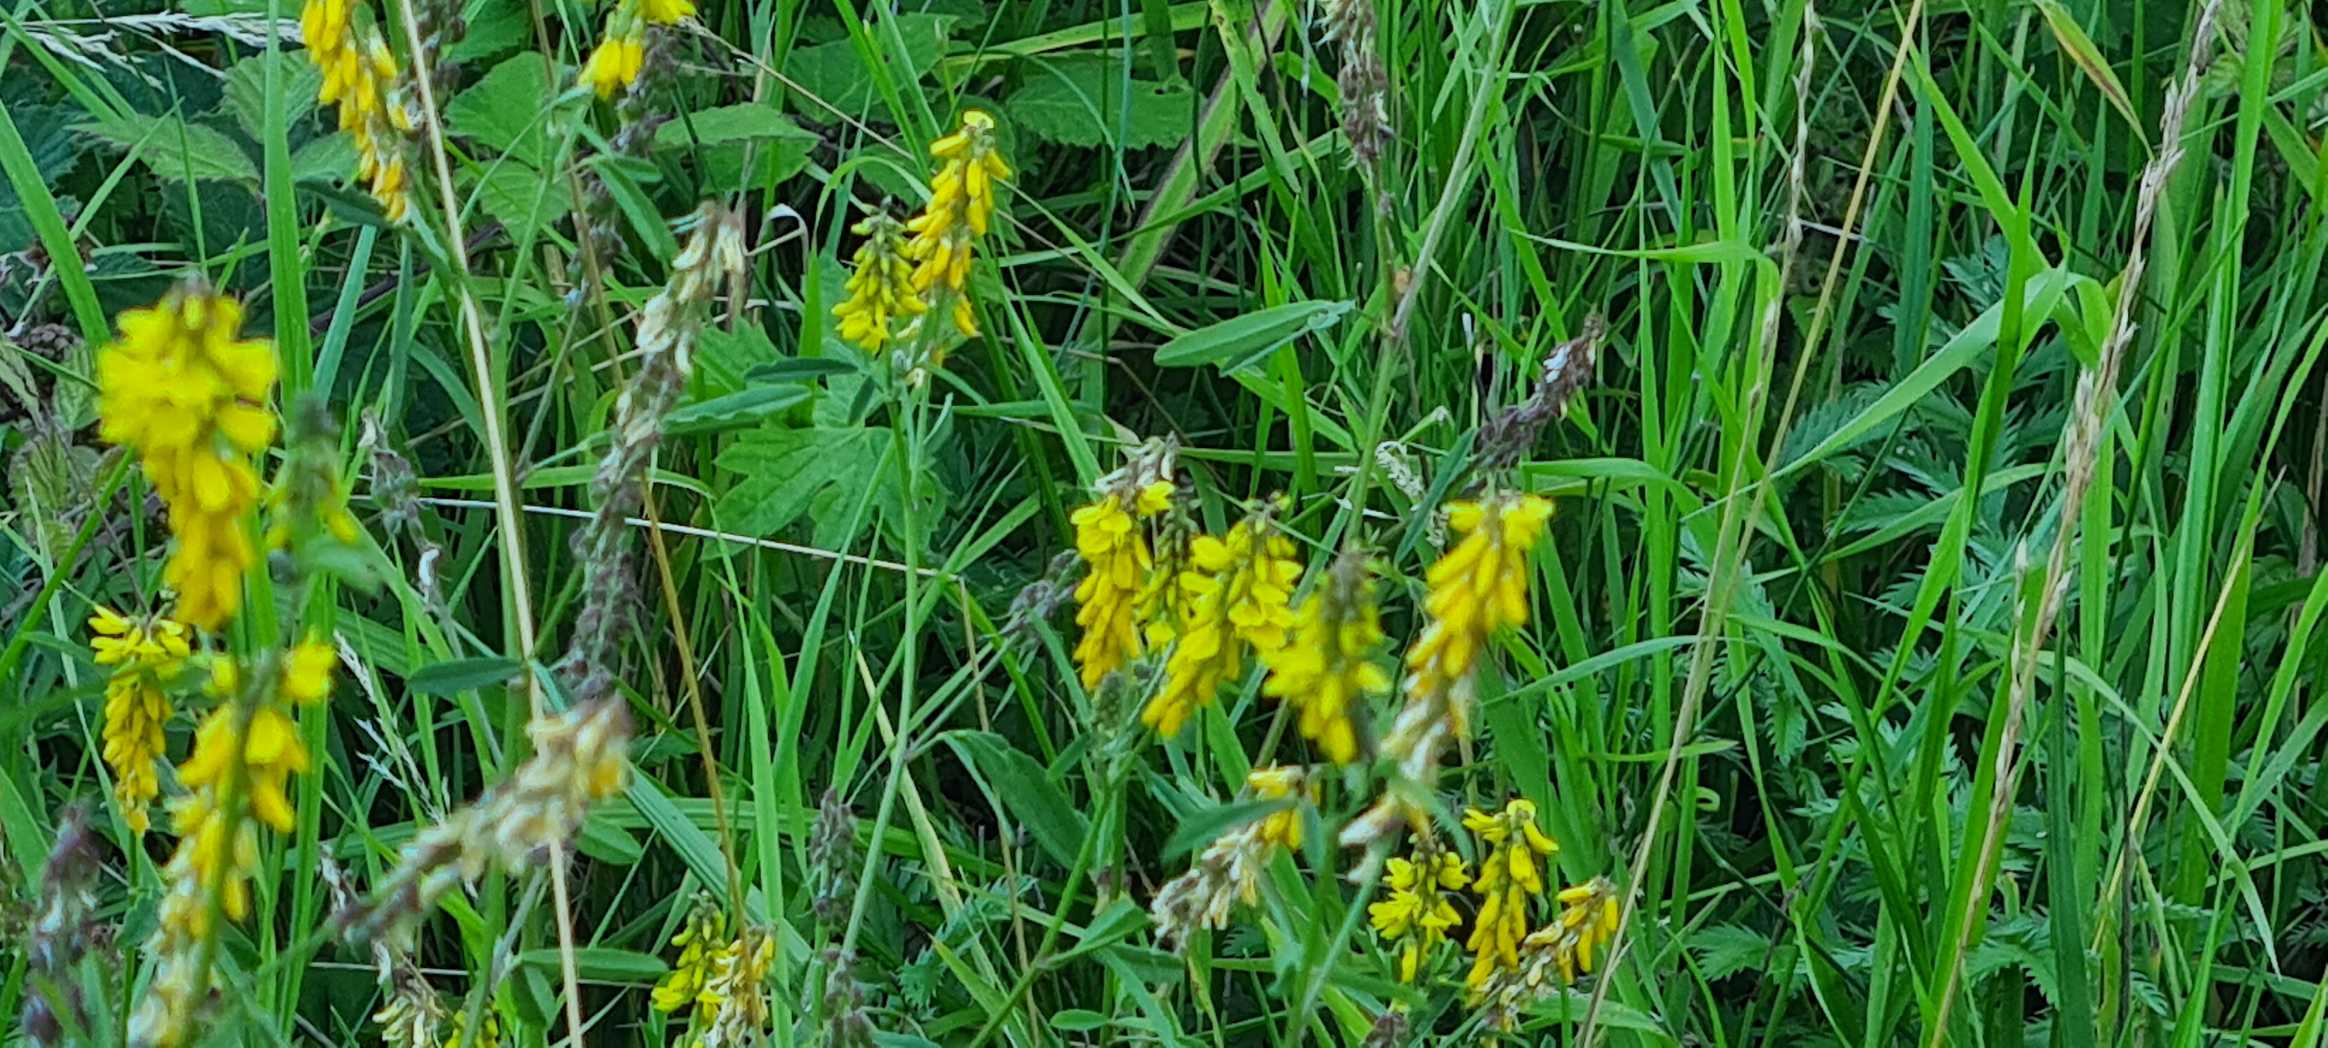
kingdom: Plantae
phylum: Tracheophyta
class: Magnoliopsida
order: Fabales
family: Fabaceae
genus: Melilotus
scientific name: Melilotus
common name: Stenkløverslægten
